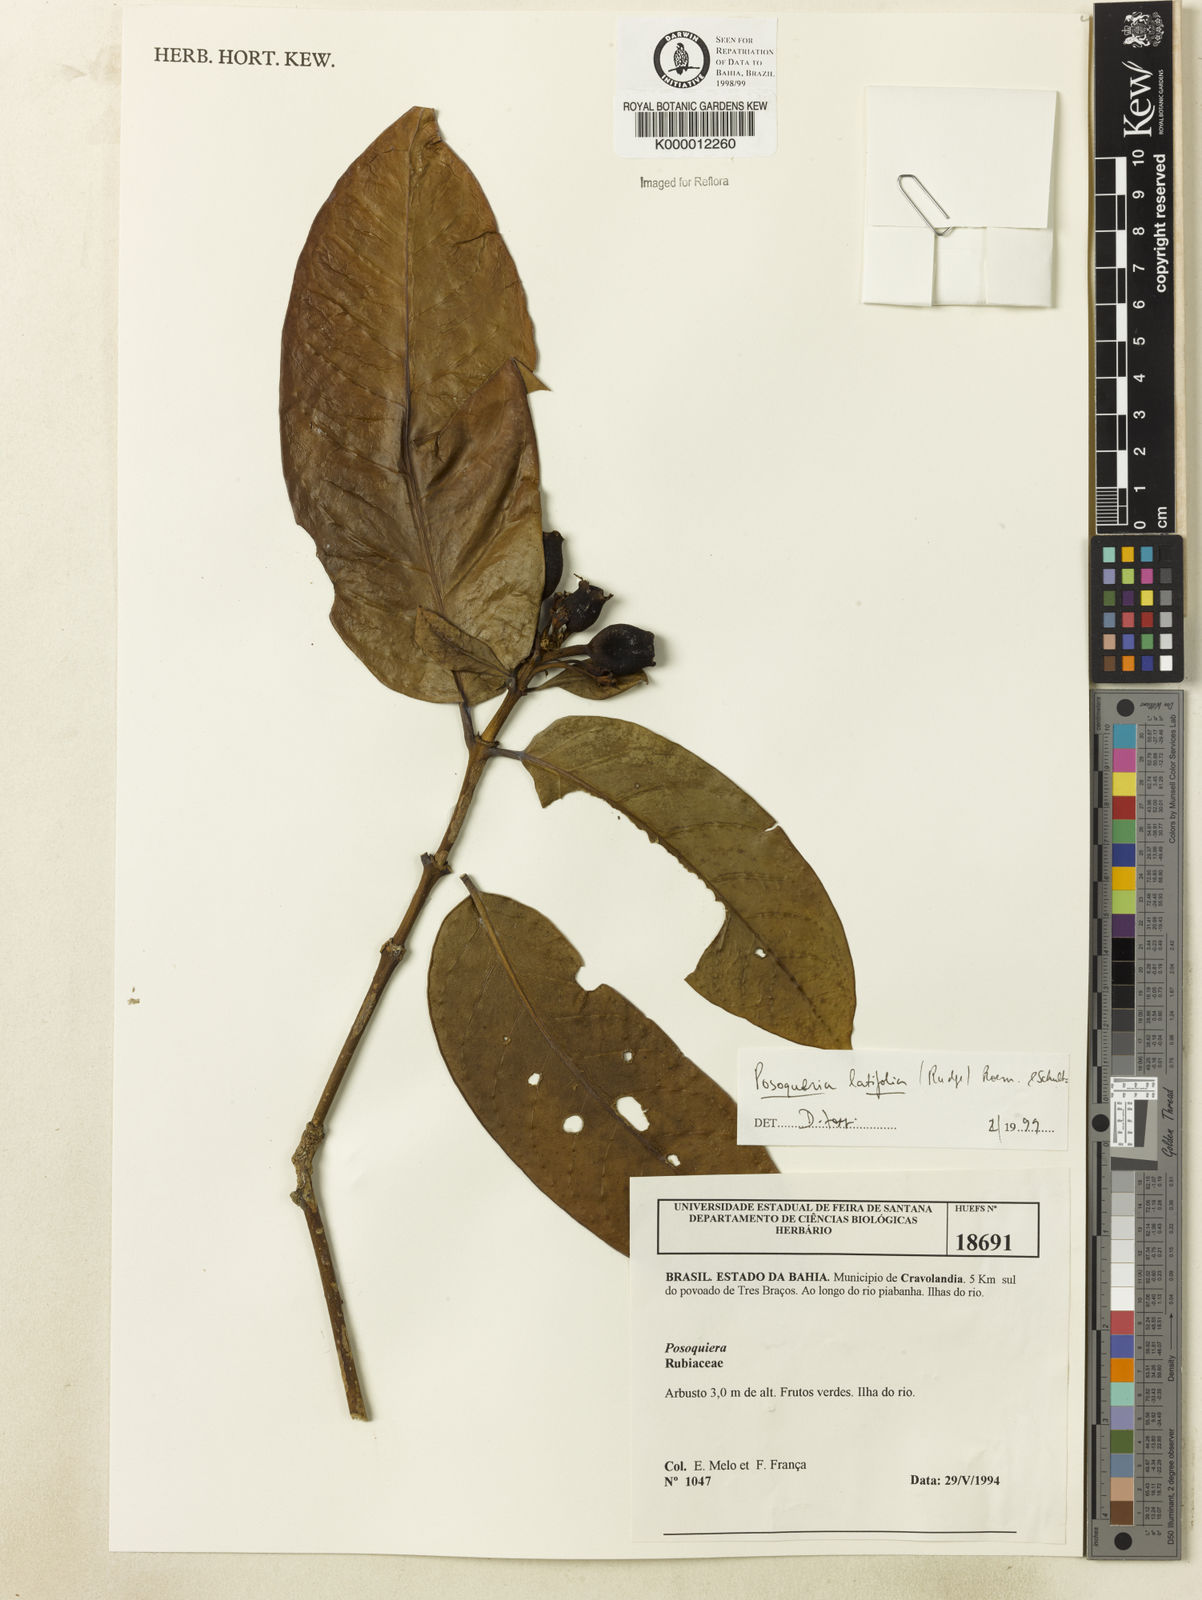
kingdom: Plantae
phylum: Tracheophyta
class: Magnoliopsida
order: Gentianales
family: Rubiaceae
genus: Posoqueria
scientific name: Posoqueria
